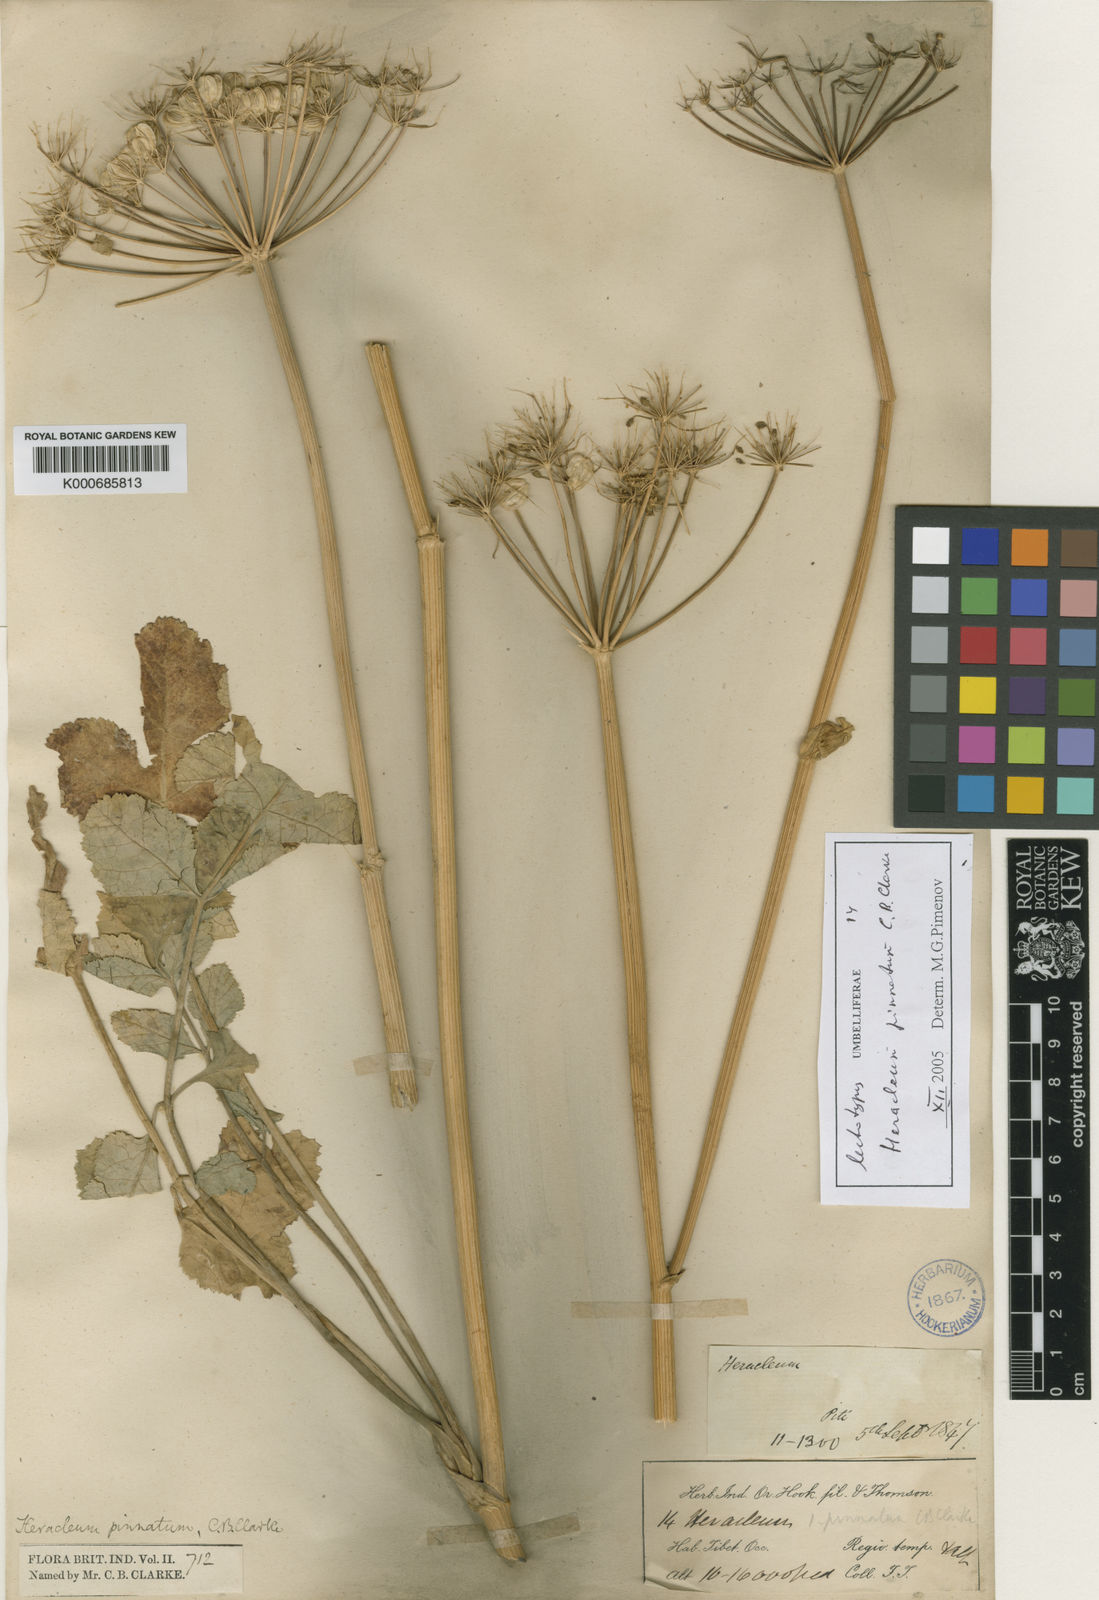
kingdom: Plantae
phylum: Tracheophyta
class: Magnoliopsida
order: Apiales
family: Apiaceae
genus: Tetrataenium
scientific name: Tetrataenium pinnatum
